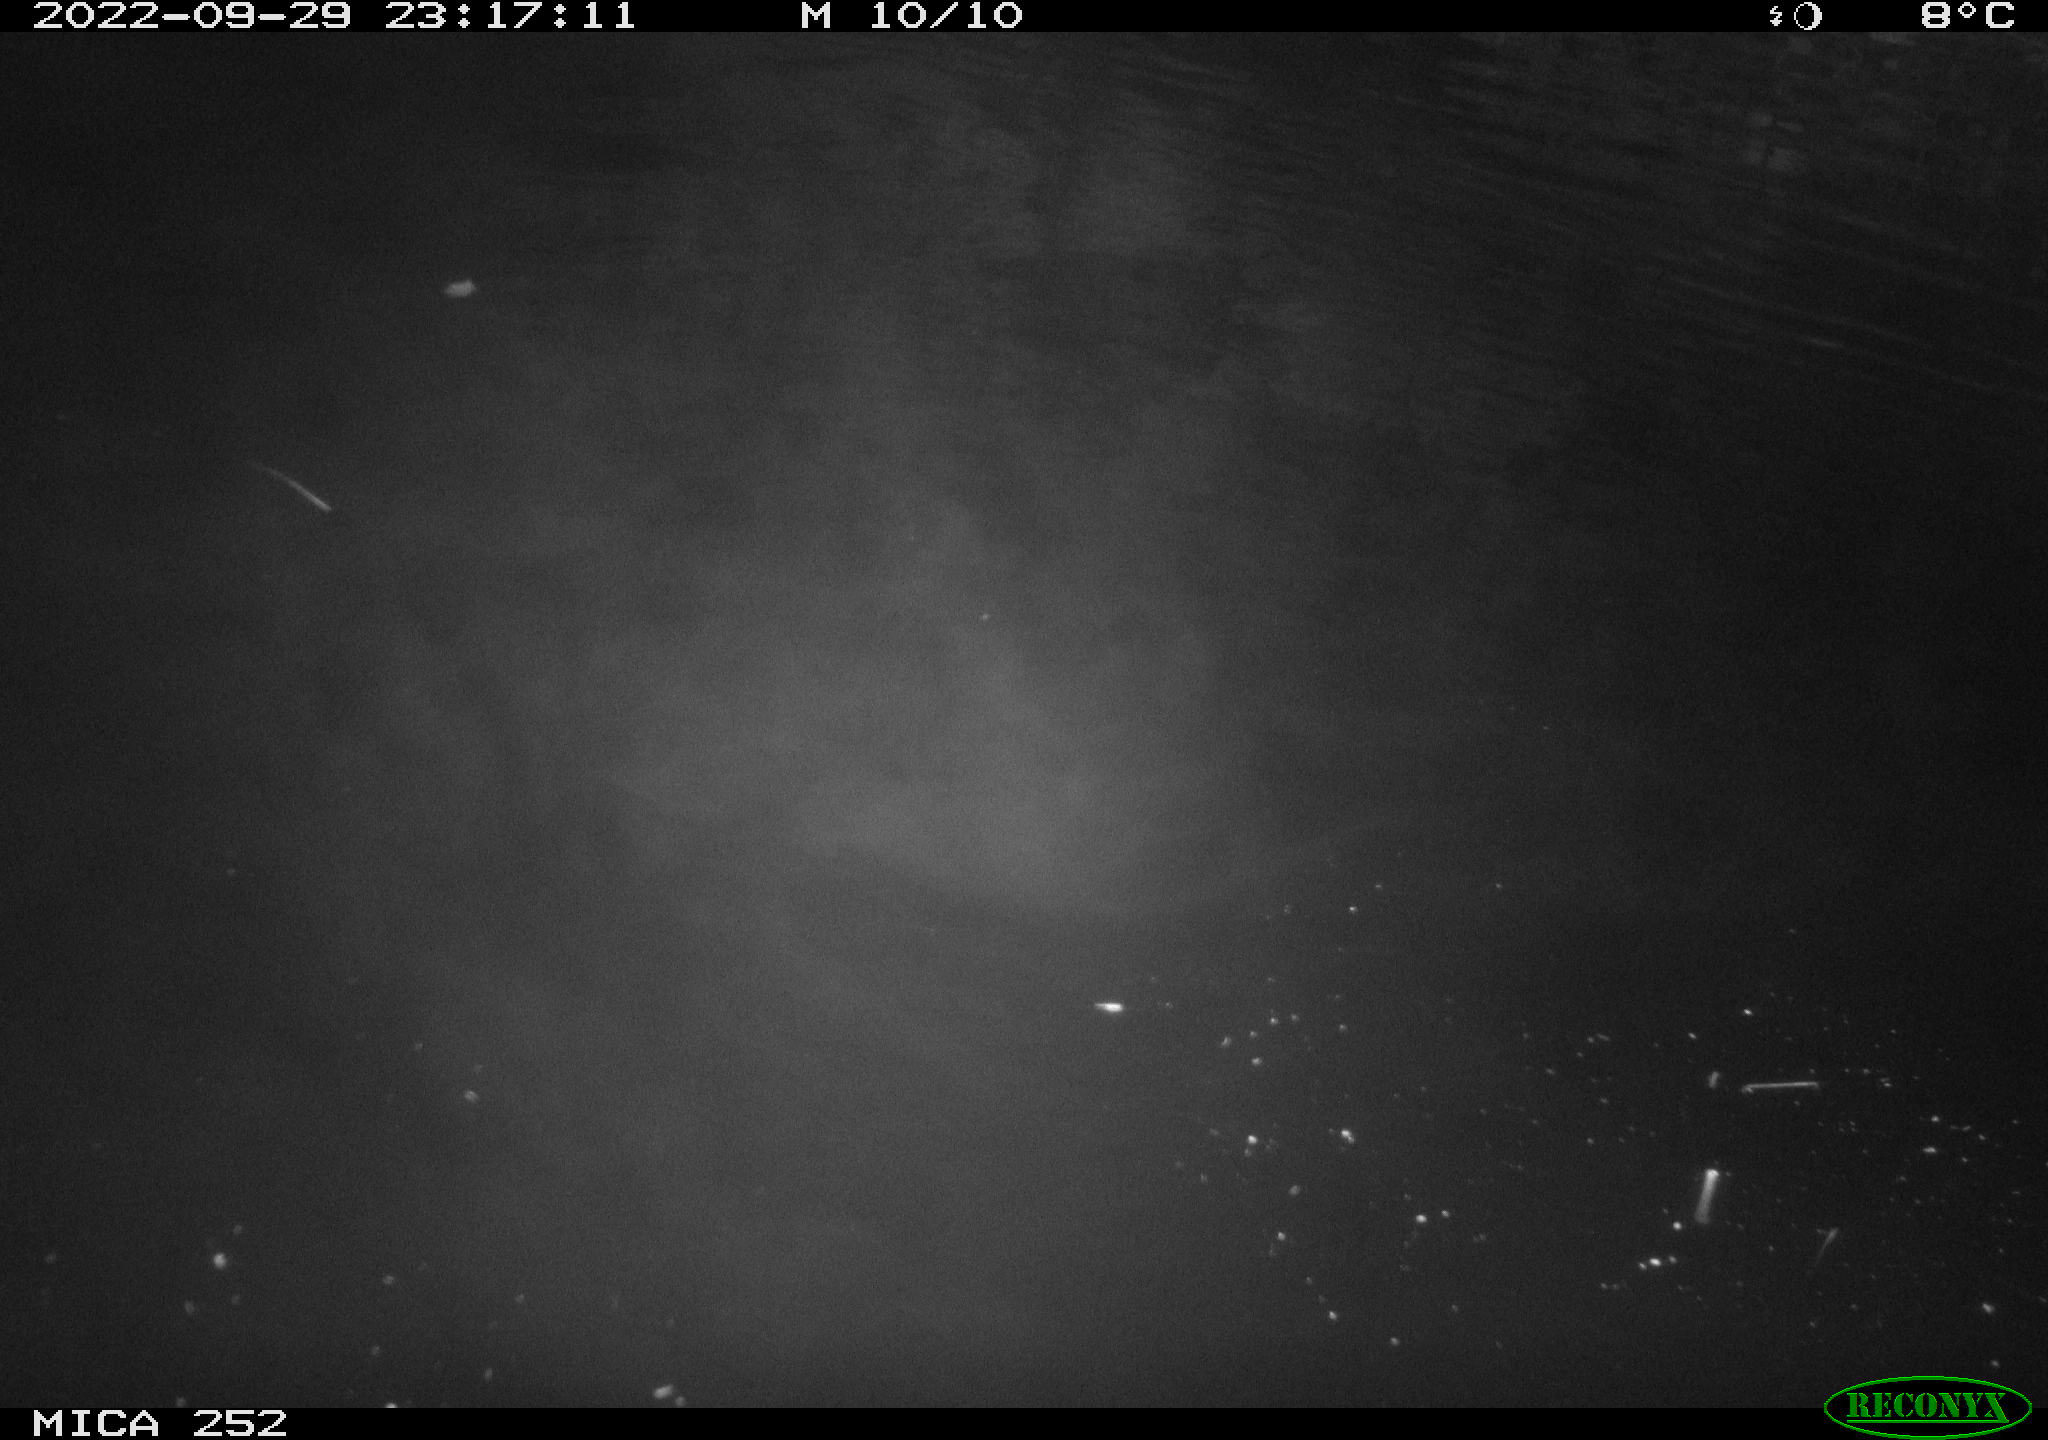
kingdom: Animalia
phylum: Chordata
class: Mammalia
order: Rodentia
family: Castoridae
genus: Castor
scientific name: Castor fiber
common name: Eurasian beaver
